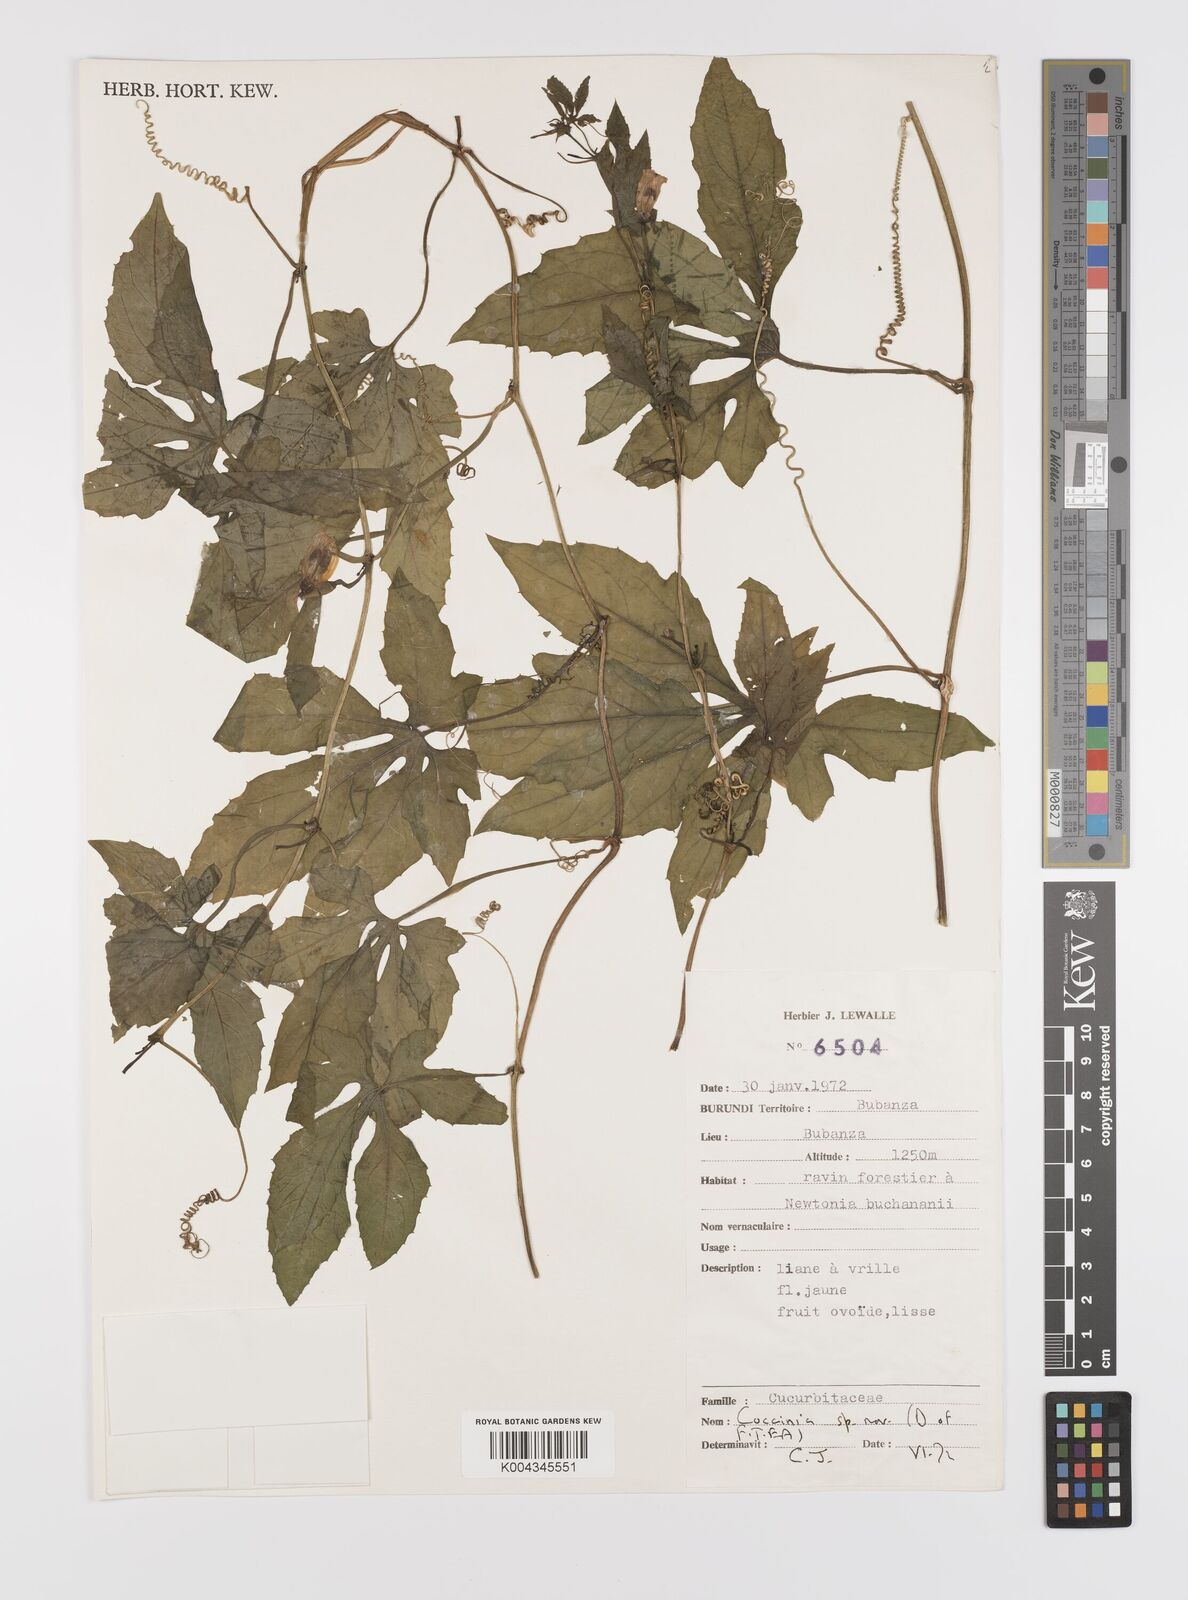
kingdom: Plantae
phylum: Tracheophyta
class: Magnoliopsida
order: Cucurbitales
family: Cucurbitaceae
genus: Coccinia
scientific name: Coccinia subsessiliflora
